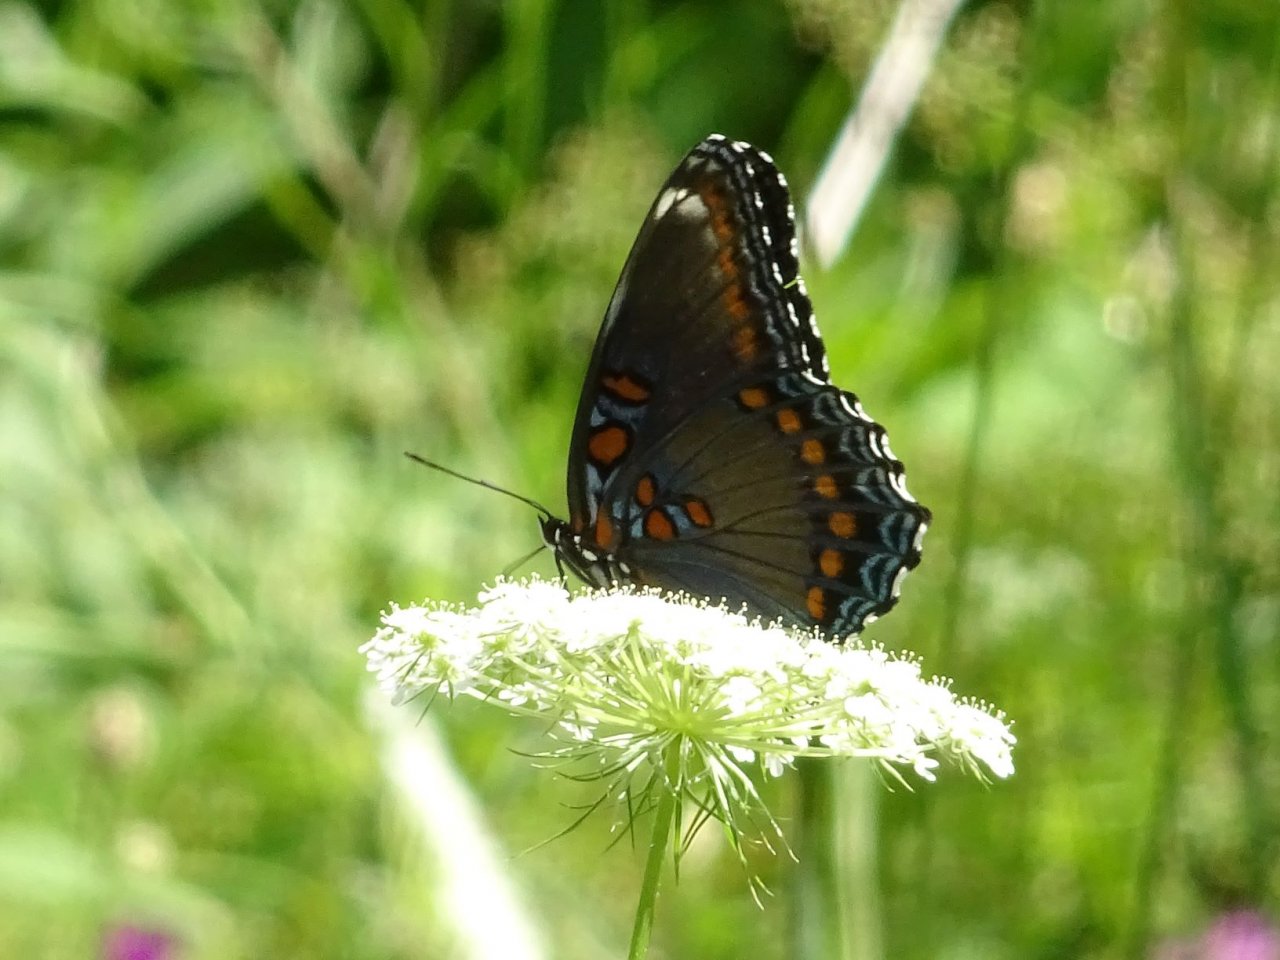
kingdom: Animalia
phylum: Arthropoda
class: Insecta
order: Lepidoptera
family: Nymphalidae
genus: Limenitis
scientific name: Limenitis astyanax
